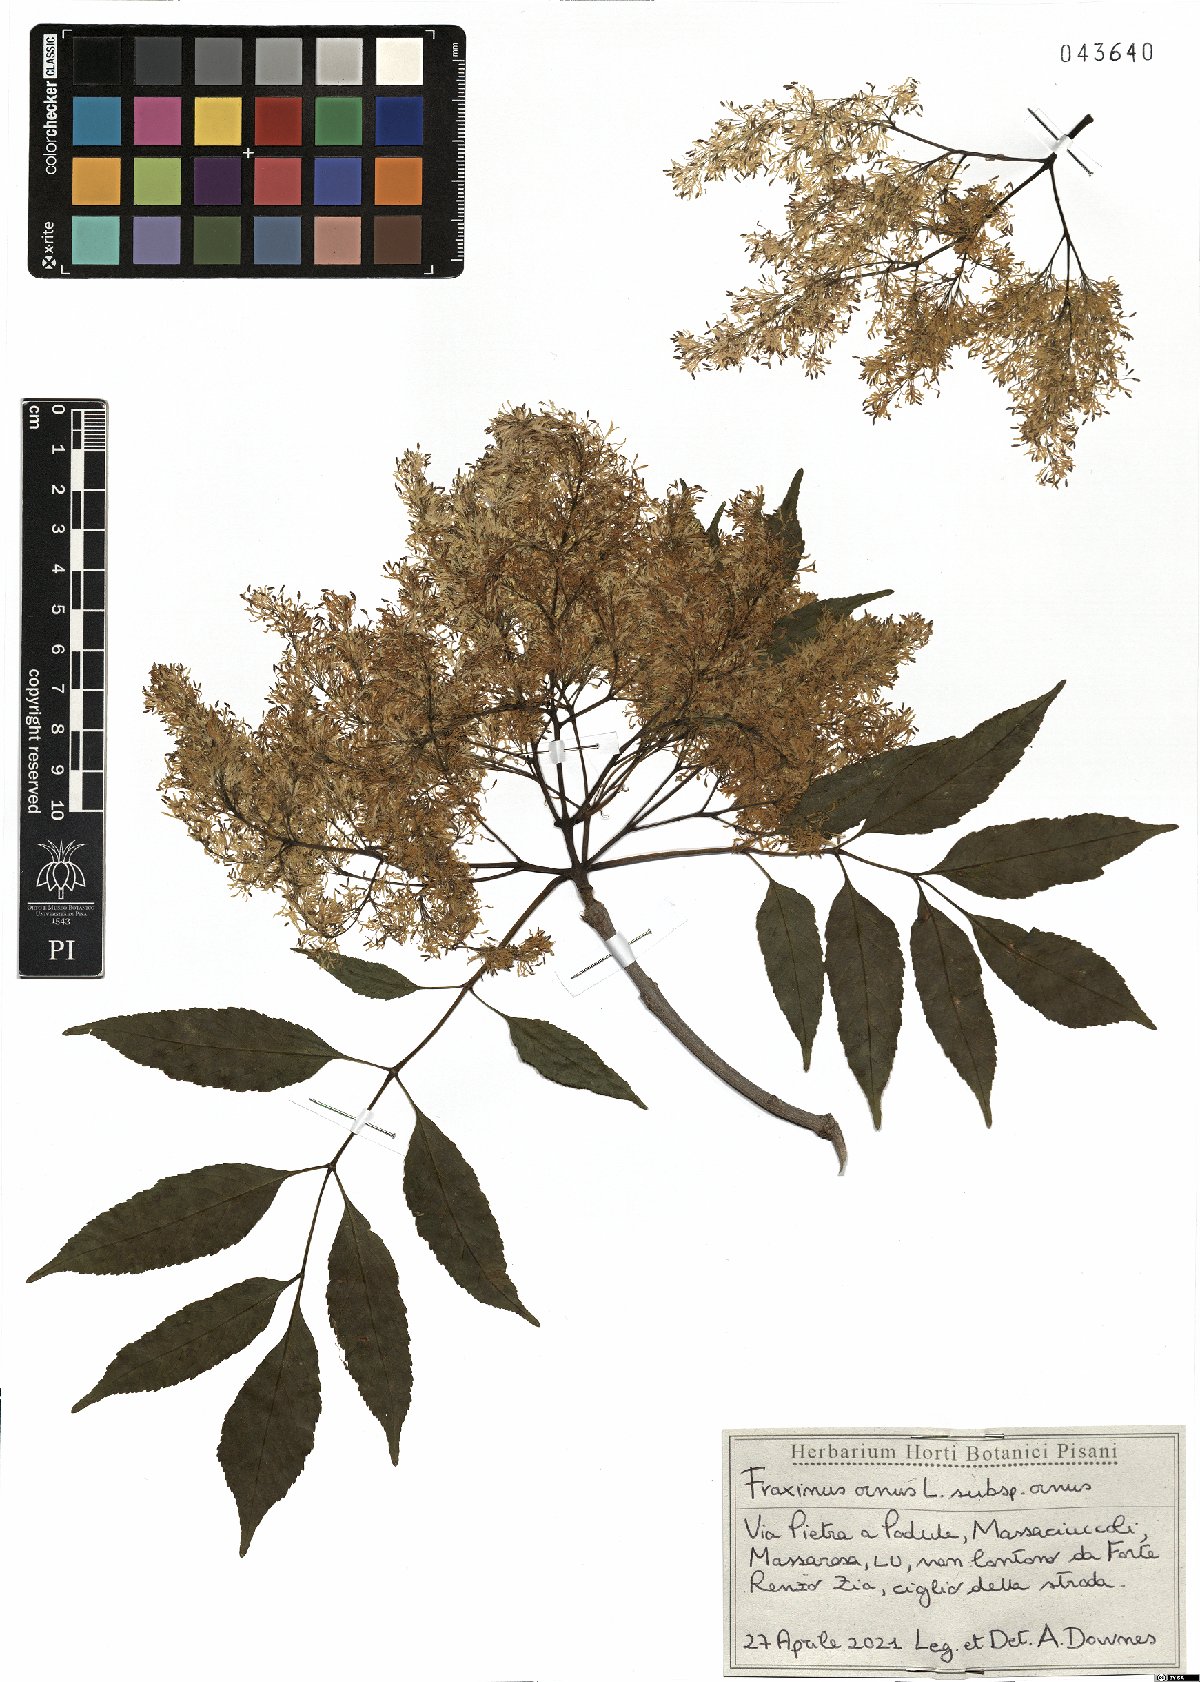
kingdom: Plantae
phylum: Tracheophyta
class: Magnoliopsida
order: Lamiales
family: Oleaceae
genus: Fraxinus
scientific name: Fraxinus ornus
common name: Manna ash
